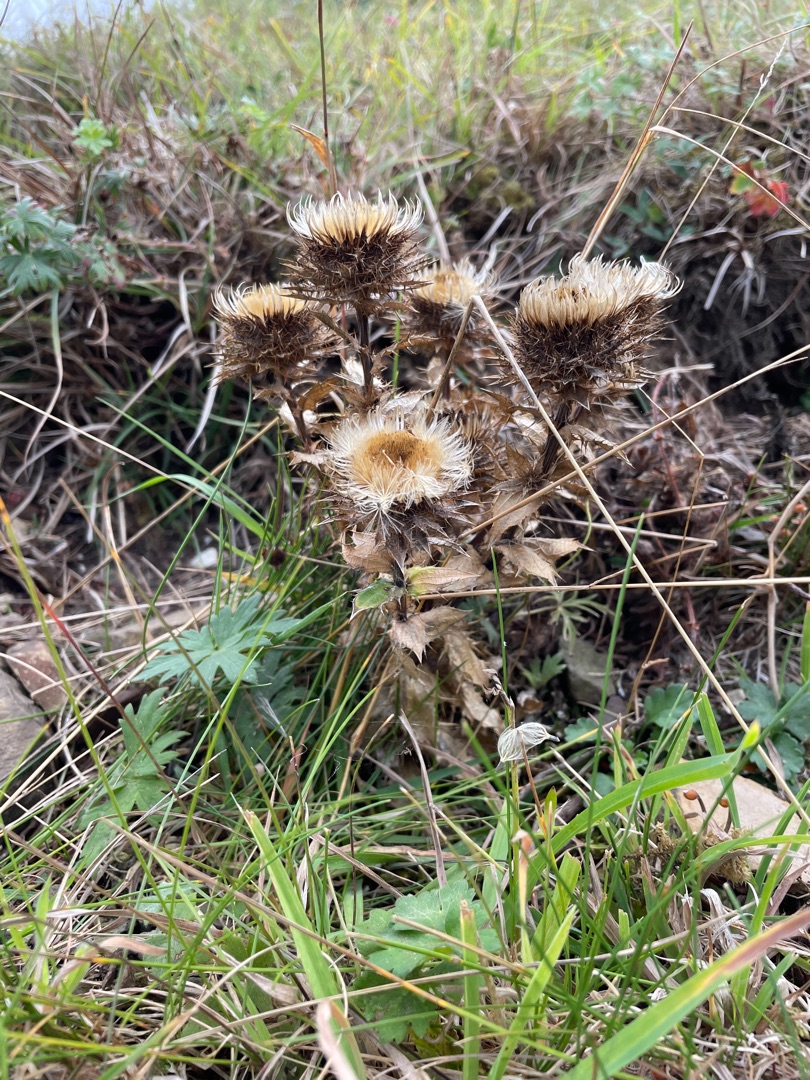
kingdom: Plantae
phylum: Tracheophyta
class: Magnoliopsida
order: Asterales
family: Asteraceae
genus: Carlina
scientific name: Carlina vulgaris
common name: Bakketidsel
